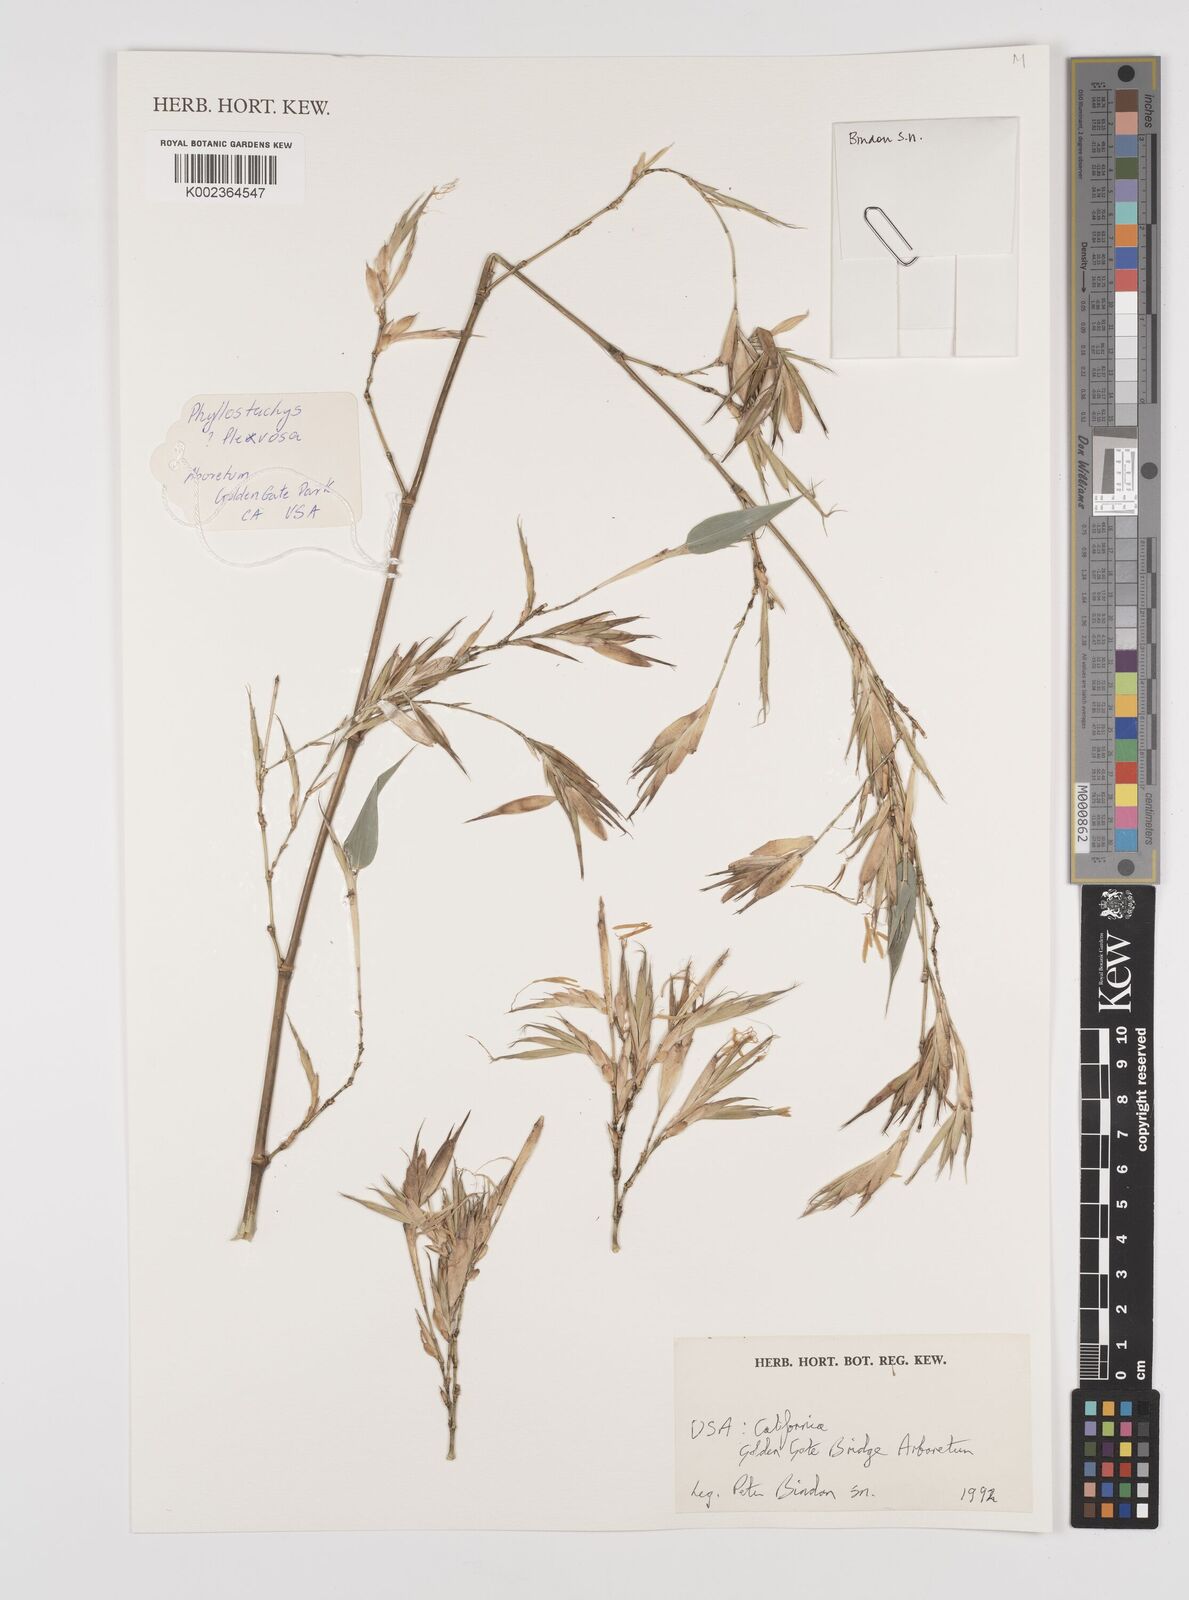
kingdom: Plantae
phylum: Tracheophyta
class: Liliopsida
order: Poales
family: Poaceae
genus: Phyllostachys
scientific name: Phyllostachys flexuosa
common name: Drooping timber bamboo
